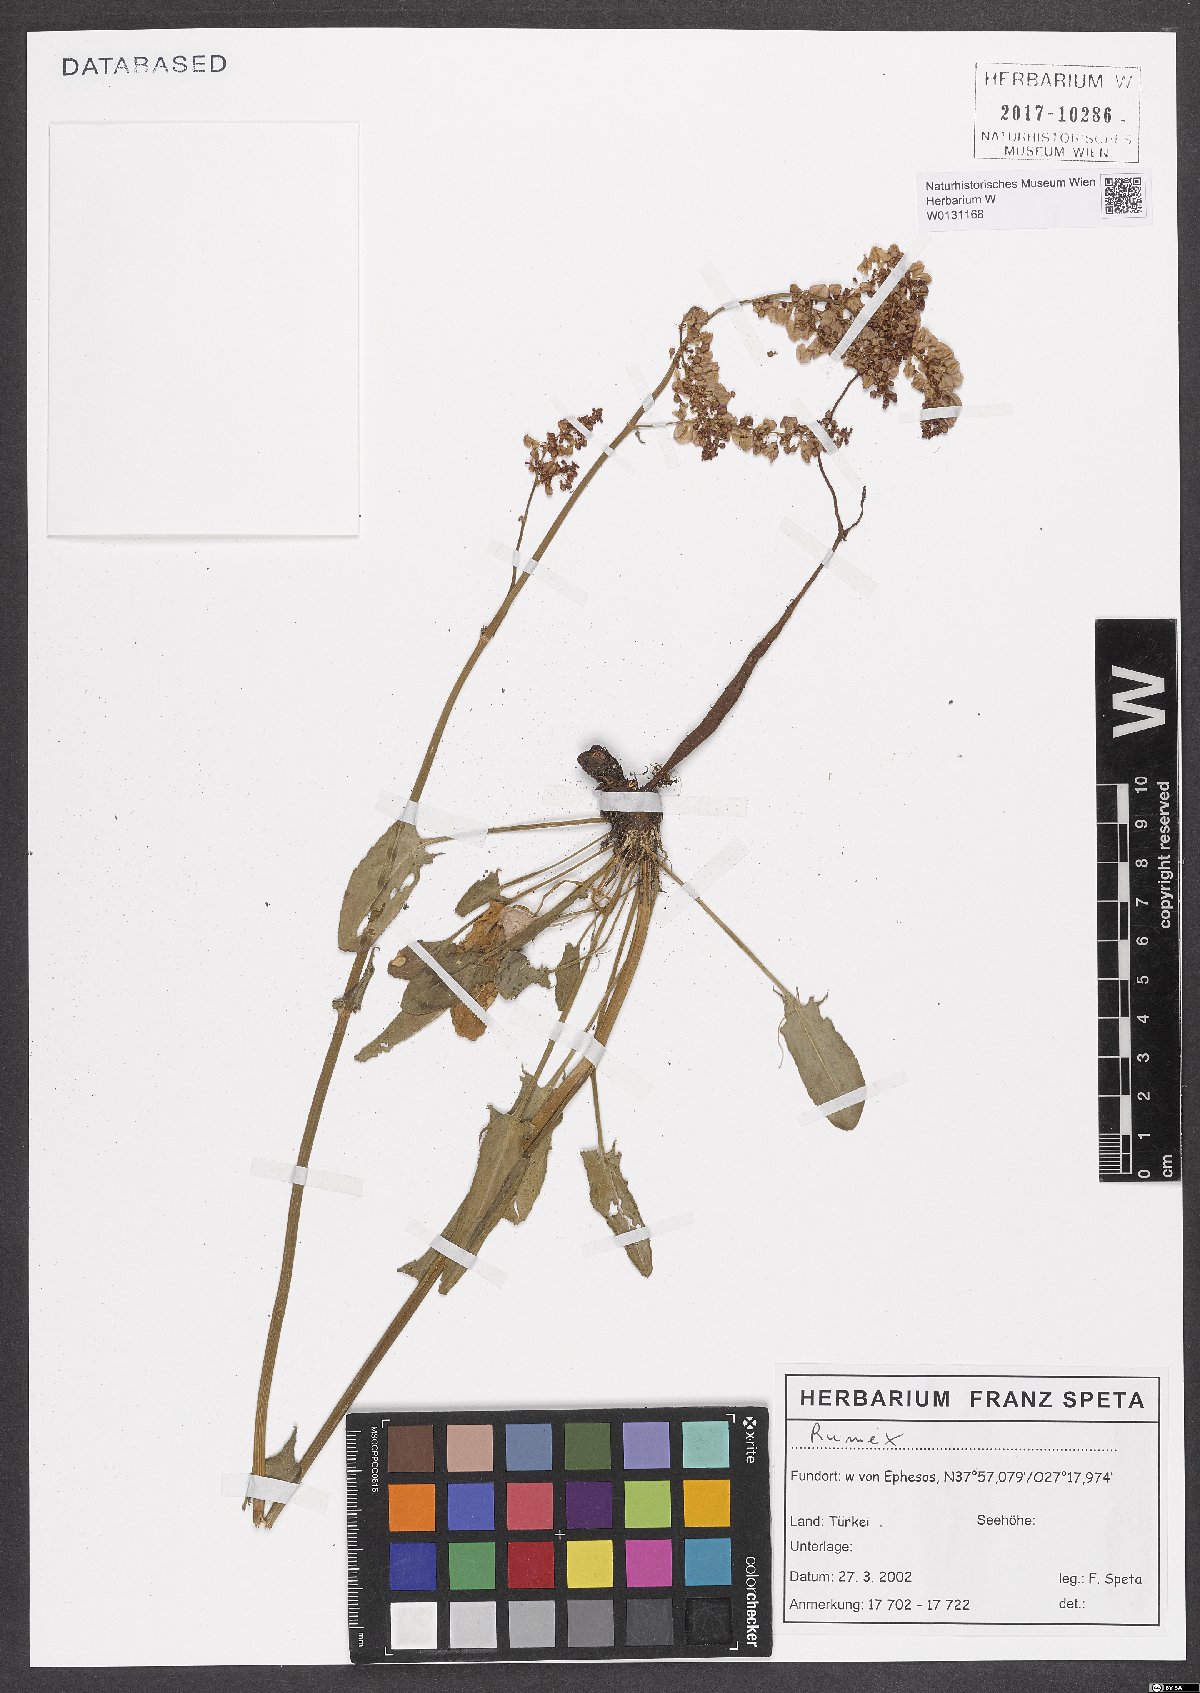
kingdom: Plantae
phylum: Tracheophyta
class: Magnoliopsida
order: Caryophyllales
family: Polygonaceae
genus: Rumex
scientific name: Rumex
